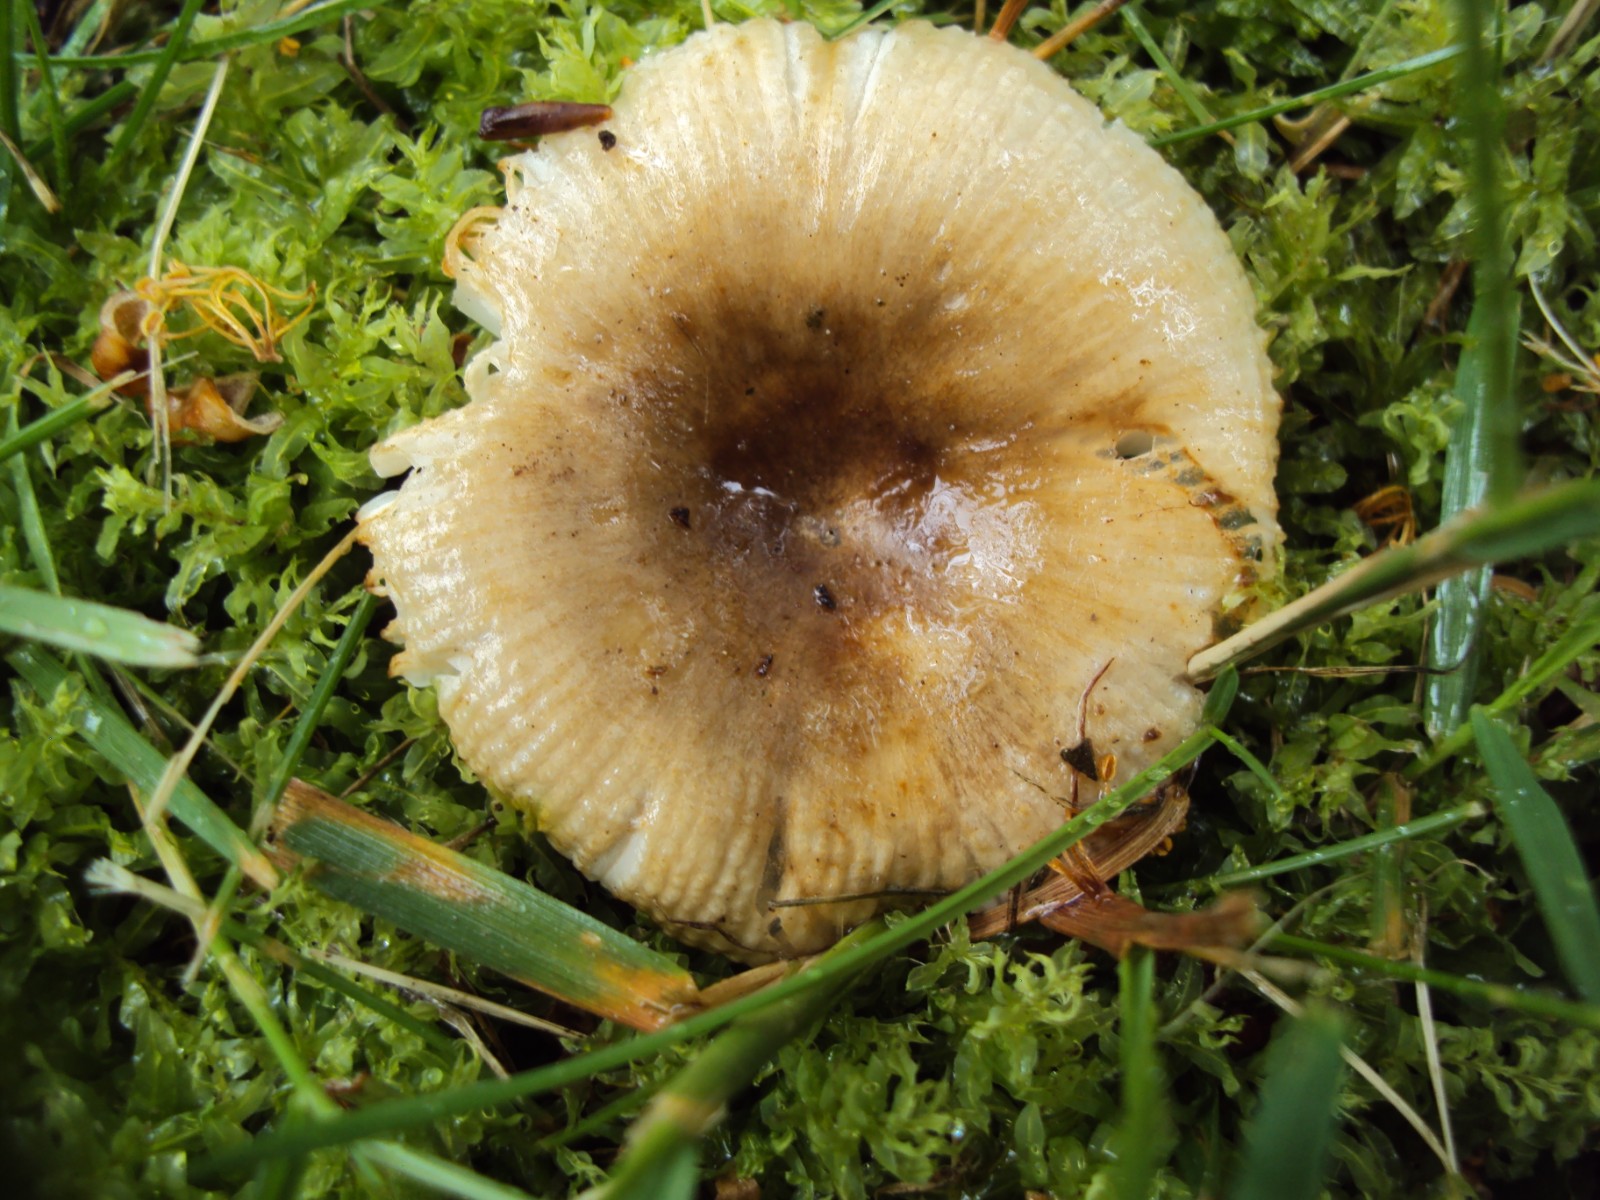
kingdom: Fungi
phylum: Basidiomycota
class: Agaricomycetes
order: Russulales
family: Russulaceae
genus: Russula
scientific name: Russula recondita
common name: mild kam-skørhat
